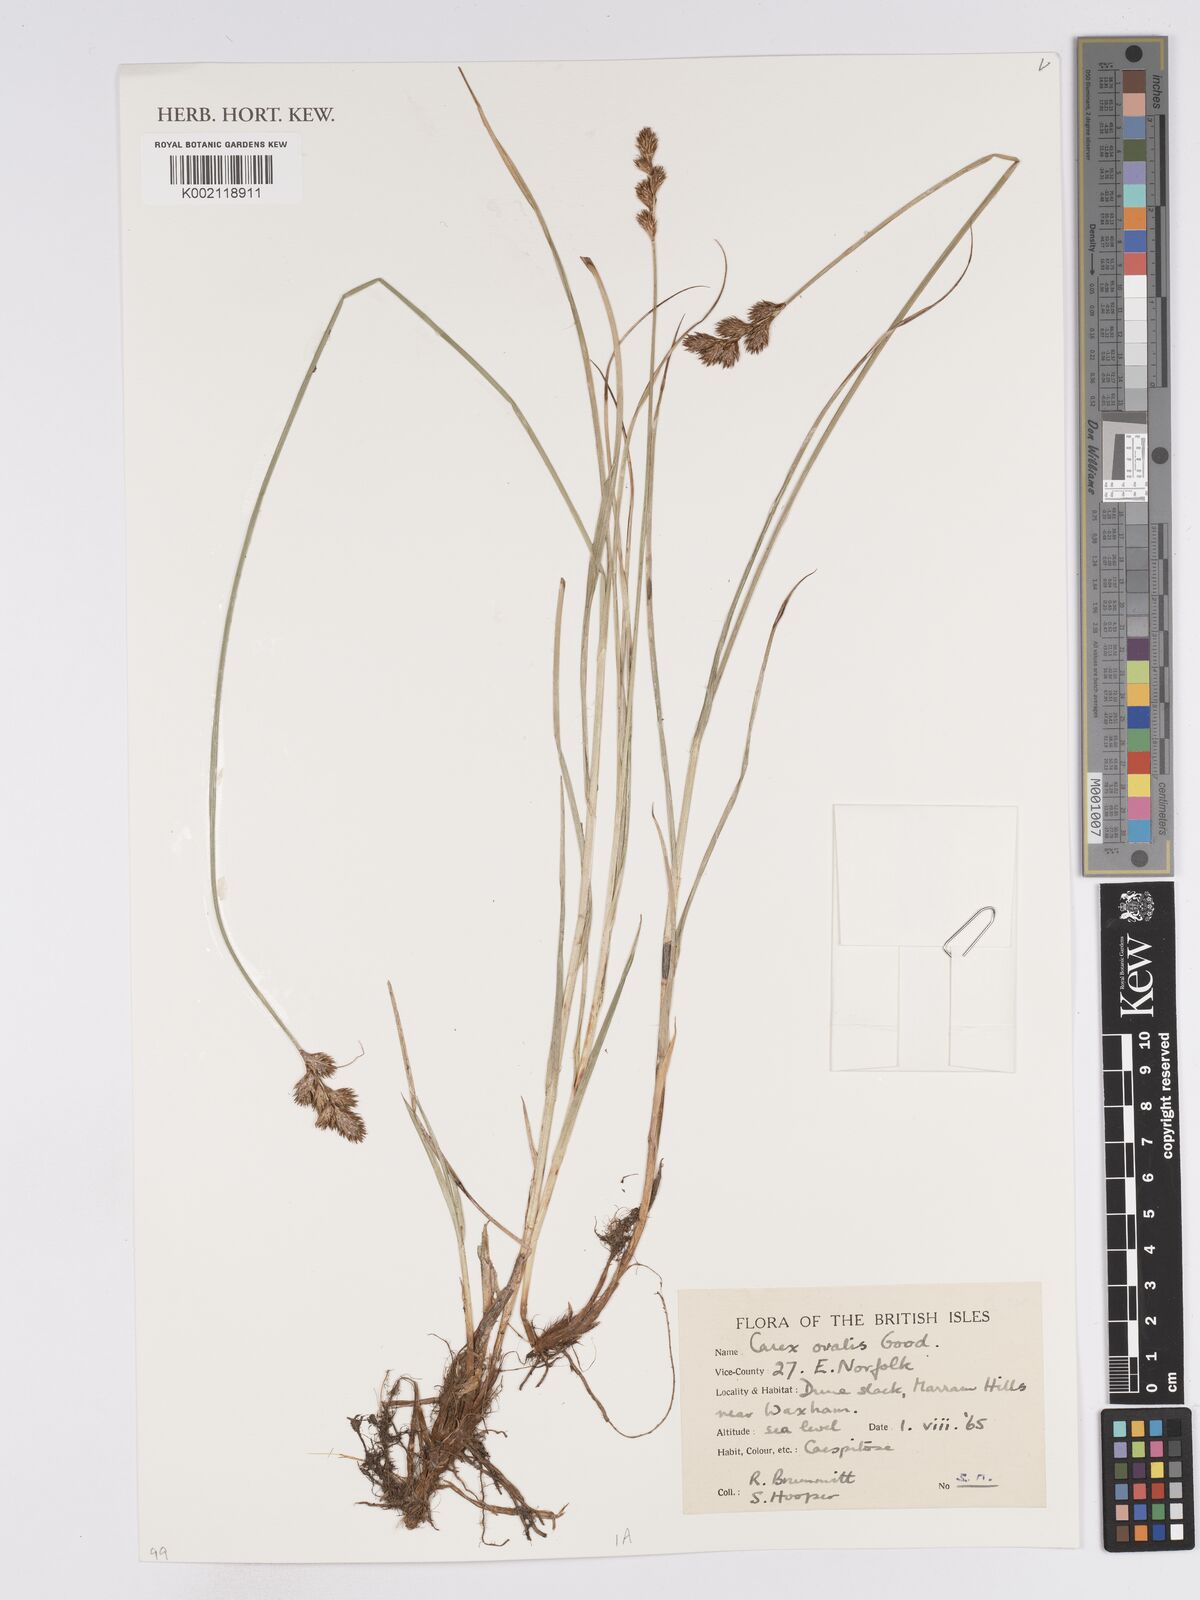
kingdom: Plantae
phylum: Tracheophyta
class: Liliopsida
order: Poales
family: Cyperaceae
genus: Carex
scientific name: Carex leporina
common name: Oval sedge
